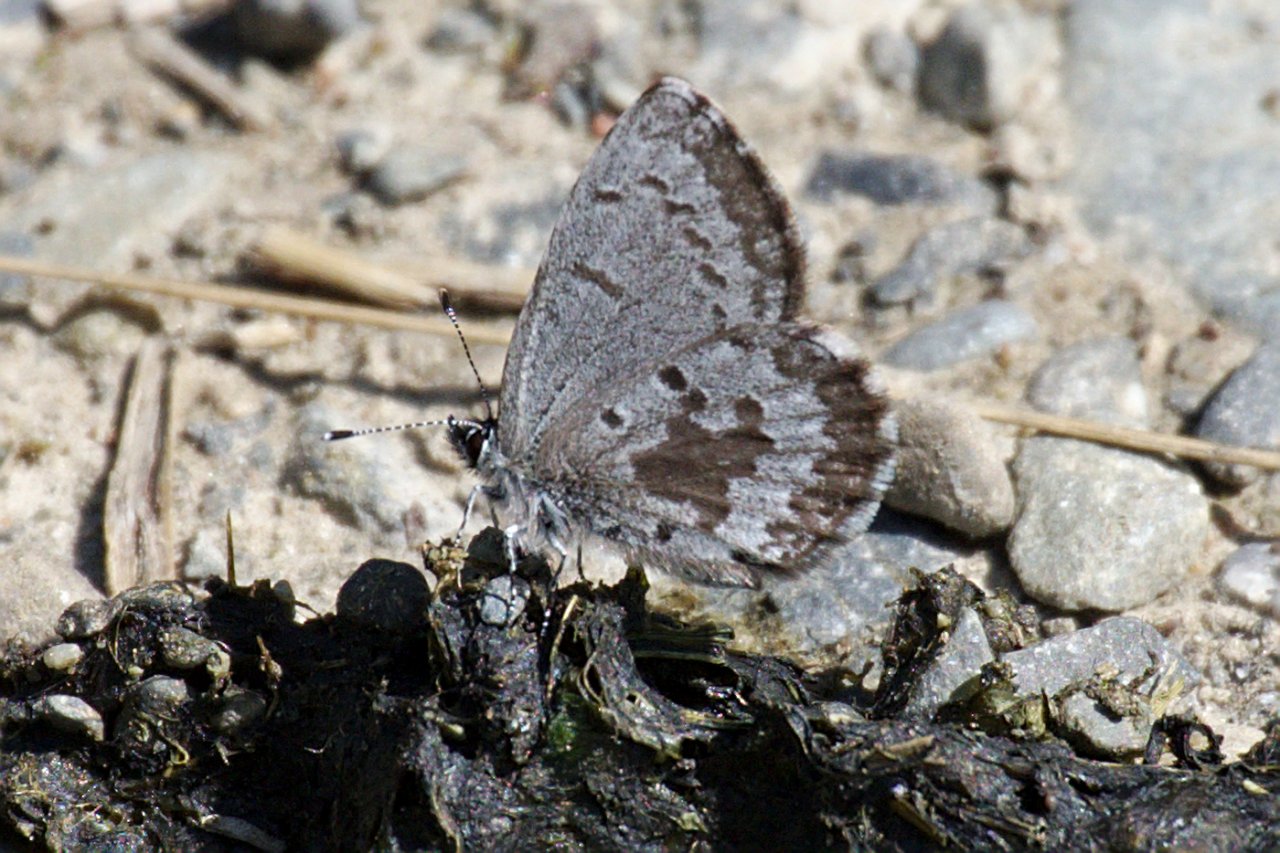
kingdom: Animalia
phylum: Arthropoda
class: Insecta
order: Lepidoptera
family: Lycaenidae
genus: Celastrina
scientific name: Celastrina lucia
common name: Northern Spring Azure
